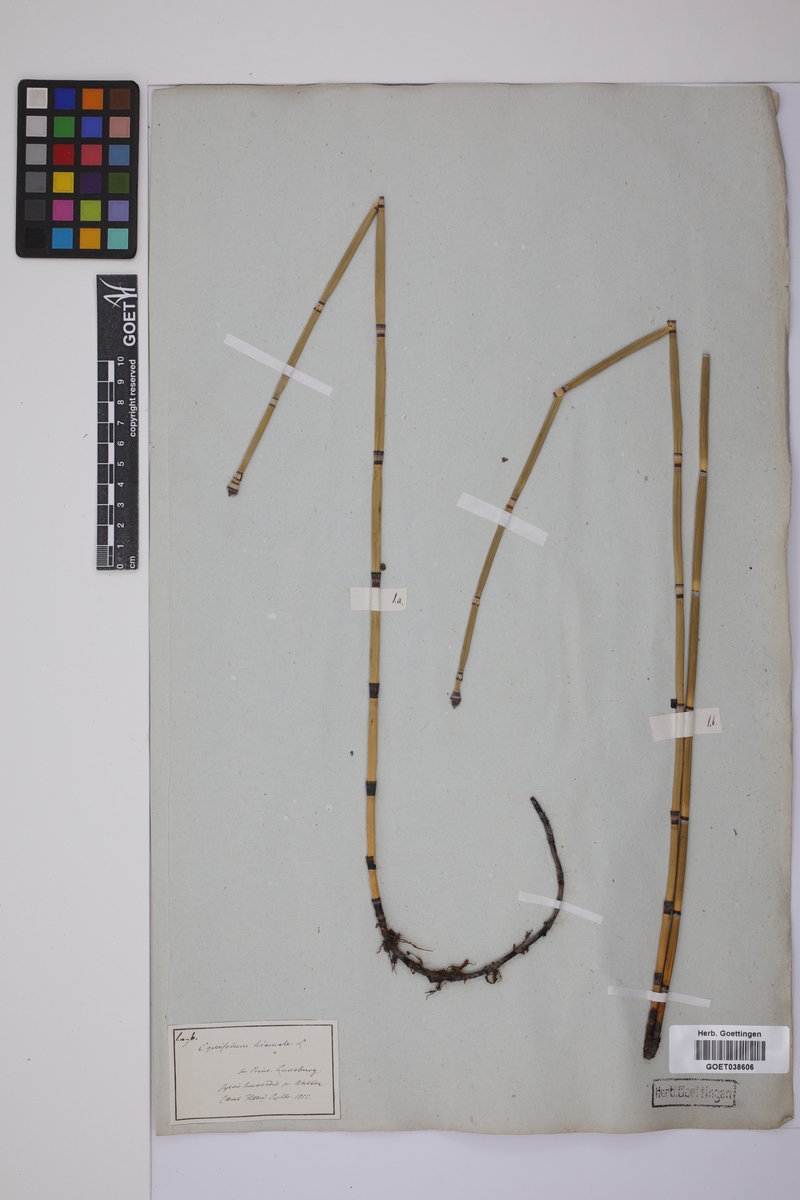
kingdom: Plantae
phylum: Tracheophyta
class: Polypodiopsida
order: Equisetales
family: Equisetaceae
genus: Equisetum
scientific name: Equisetum hyemale
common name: Rough horsetail
